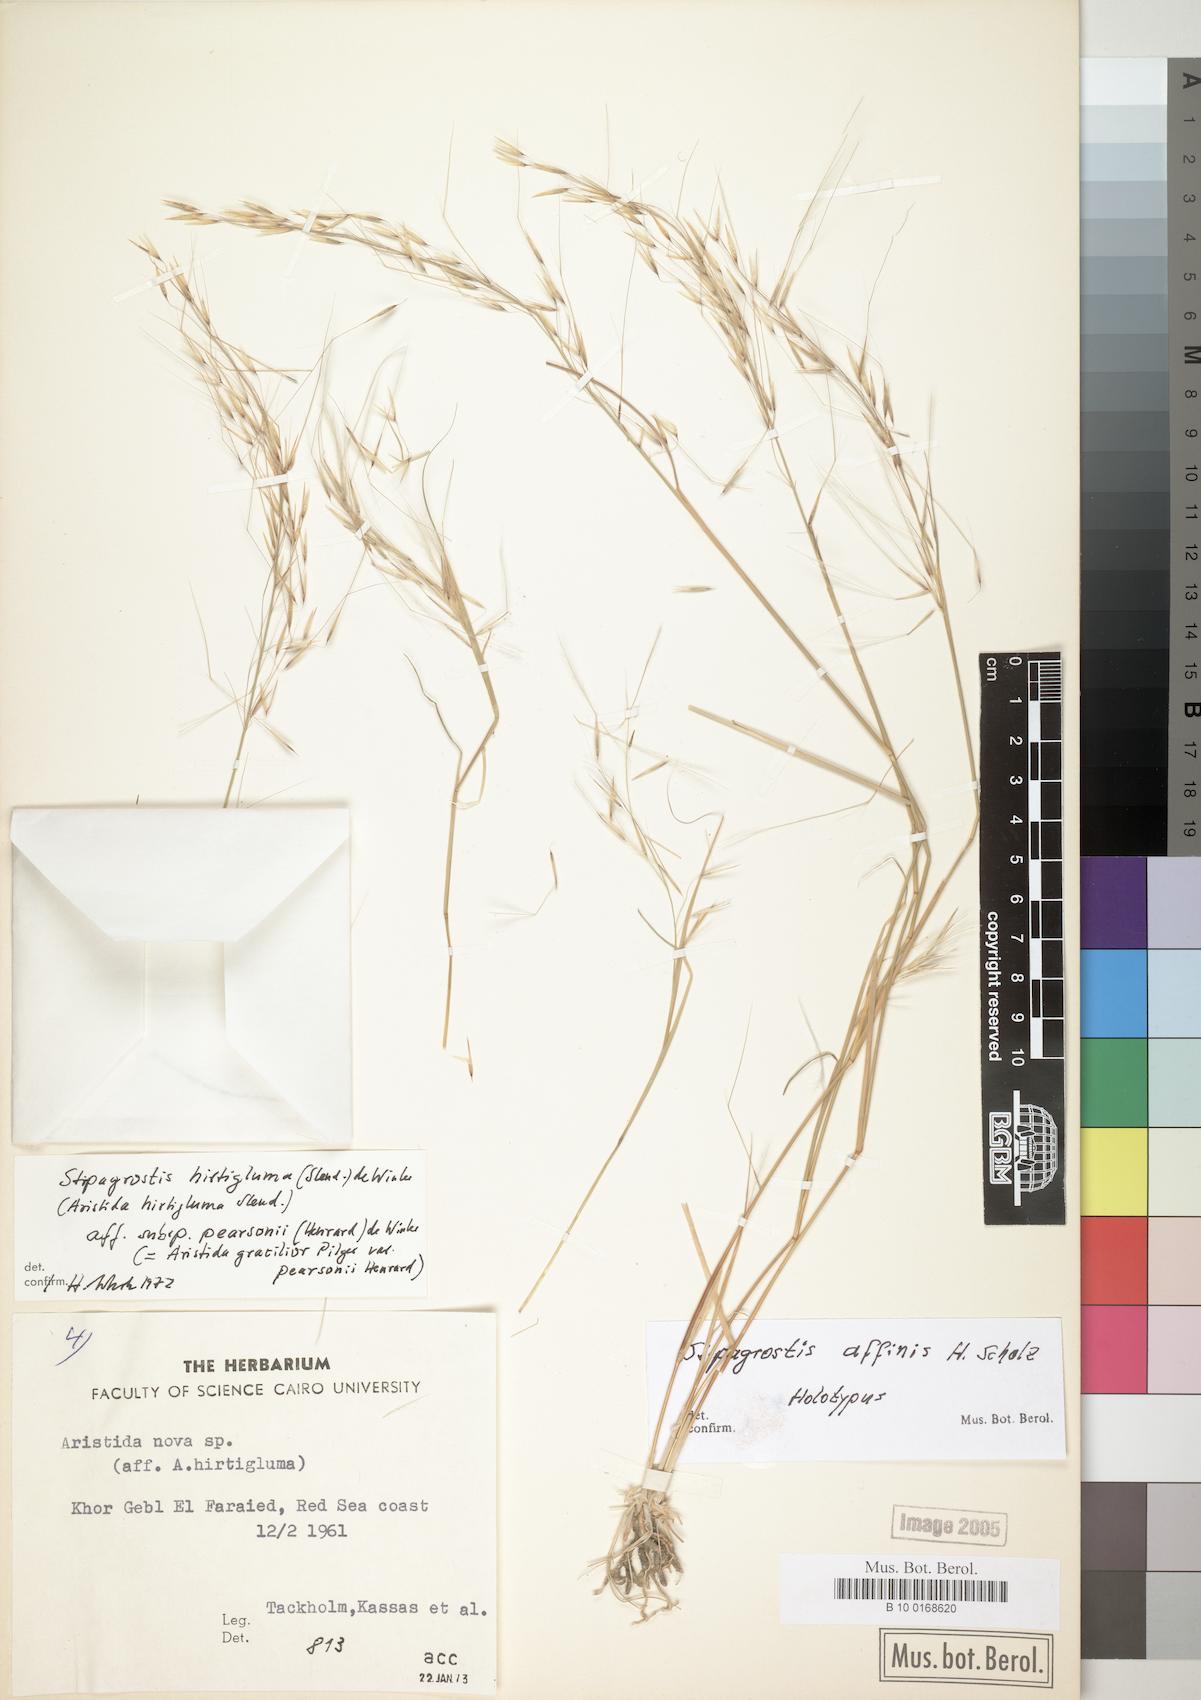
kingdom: Plantae
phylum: Tracheophyta
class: Liliopsida
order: Poales
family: Poaceae
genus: Stipagrostis
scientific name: Stipagrostis hirtigluma
